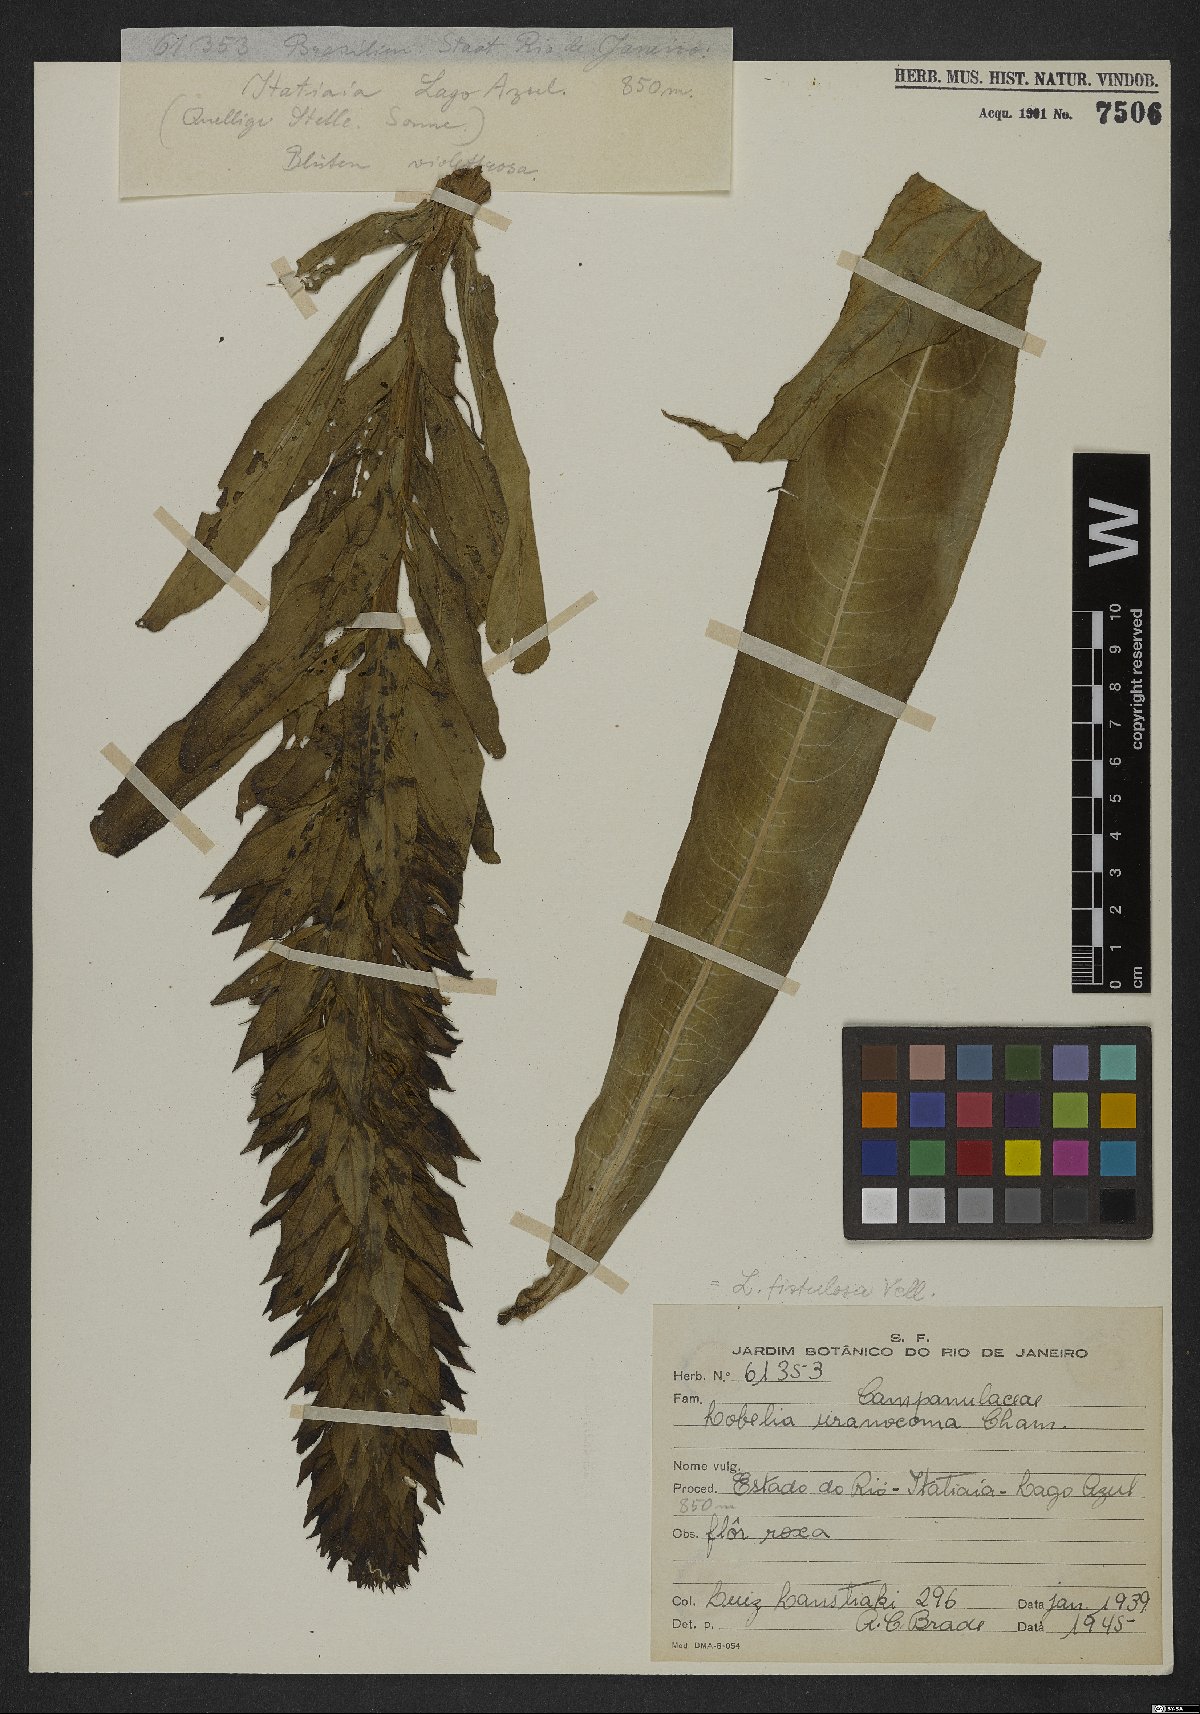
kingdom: Plantae
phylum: Tracheophyta
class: Magnoliopsida
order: Asterales
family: Campanulaceae
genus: Lobelia
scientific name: Lobelia fistulosa
